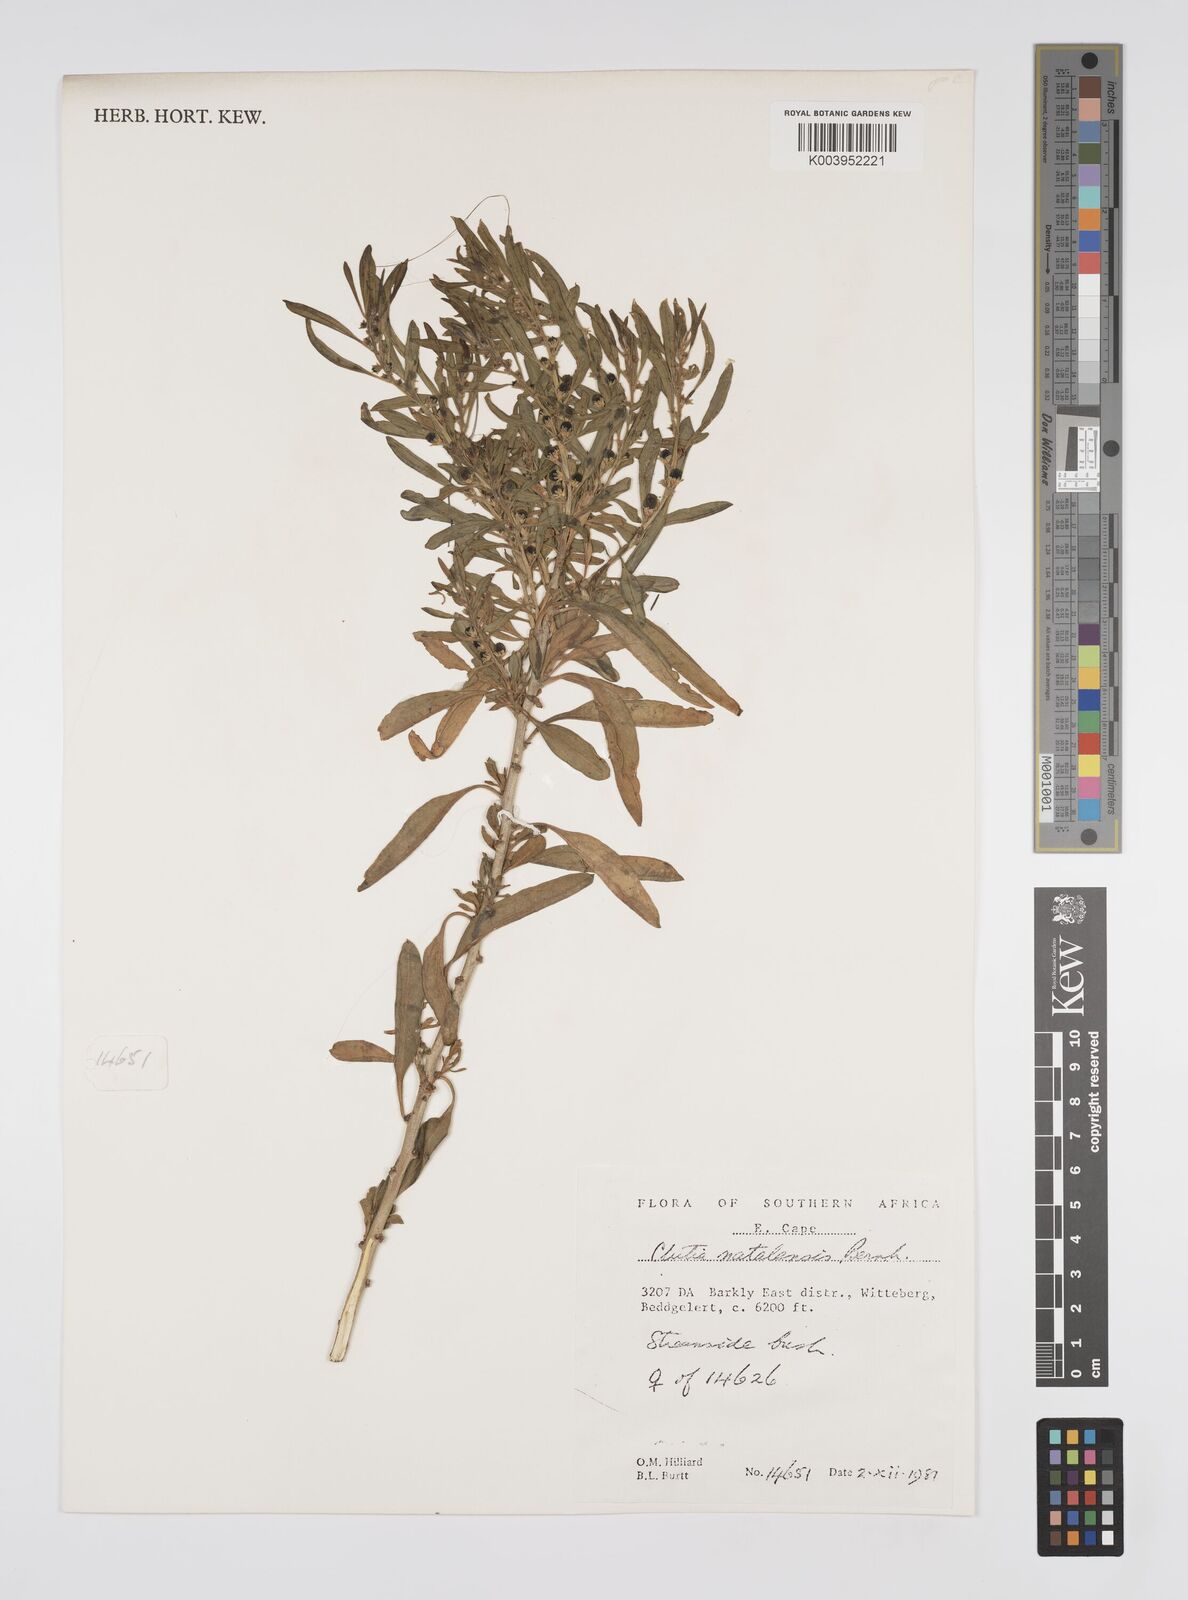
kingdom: Plantae
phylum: Tracheophyta
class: Magnoliopsida
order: Malpighiales
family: Peraceae
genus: Clutia
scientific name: Clutia natalensis
